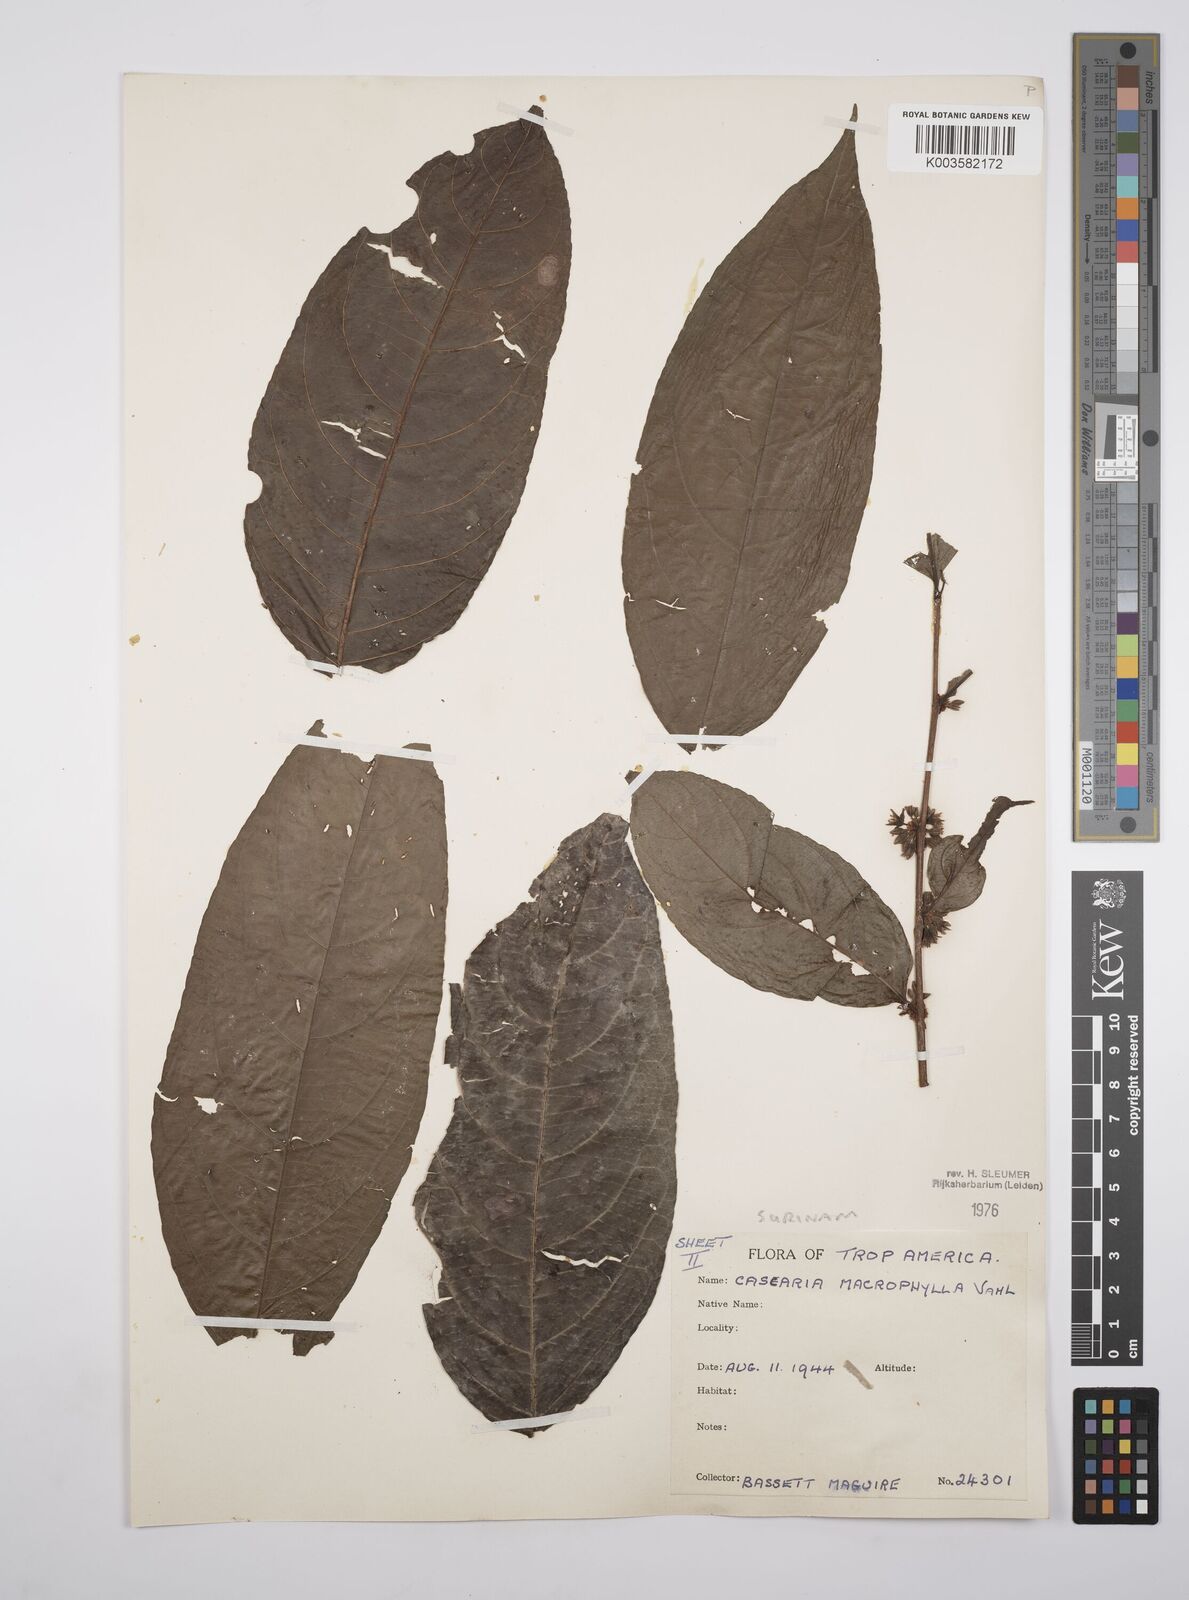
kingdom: Plantae
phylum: Tracheophyta
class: Magnoliopsida
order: Malpighiales
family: Salicaceae
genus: Casearia
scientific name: Casearia pitumba
